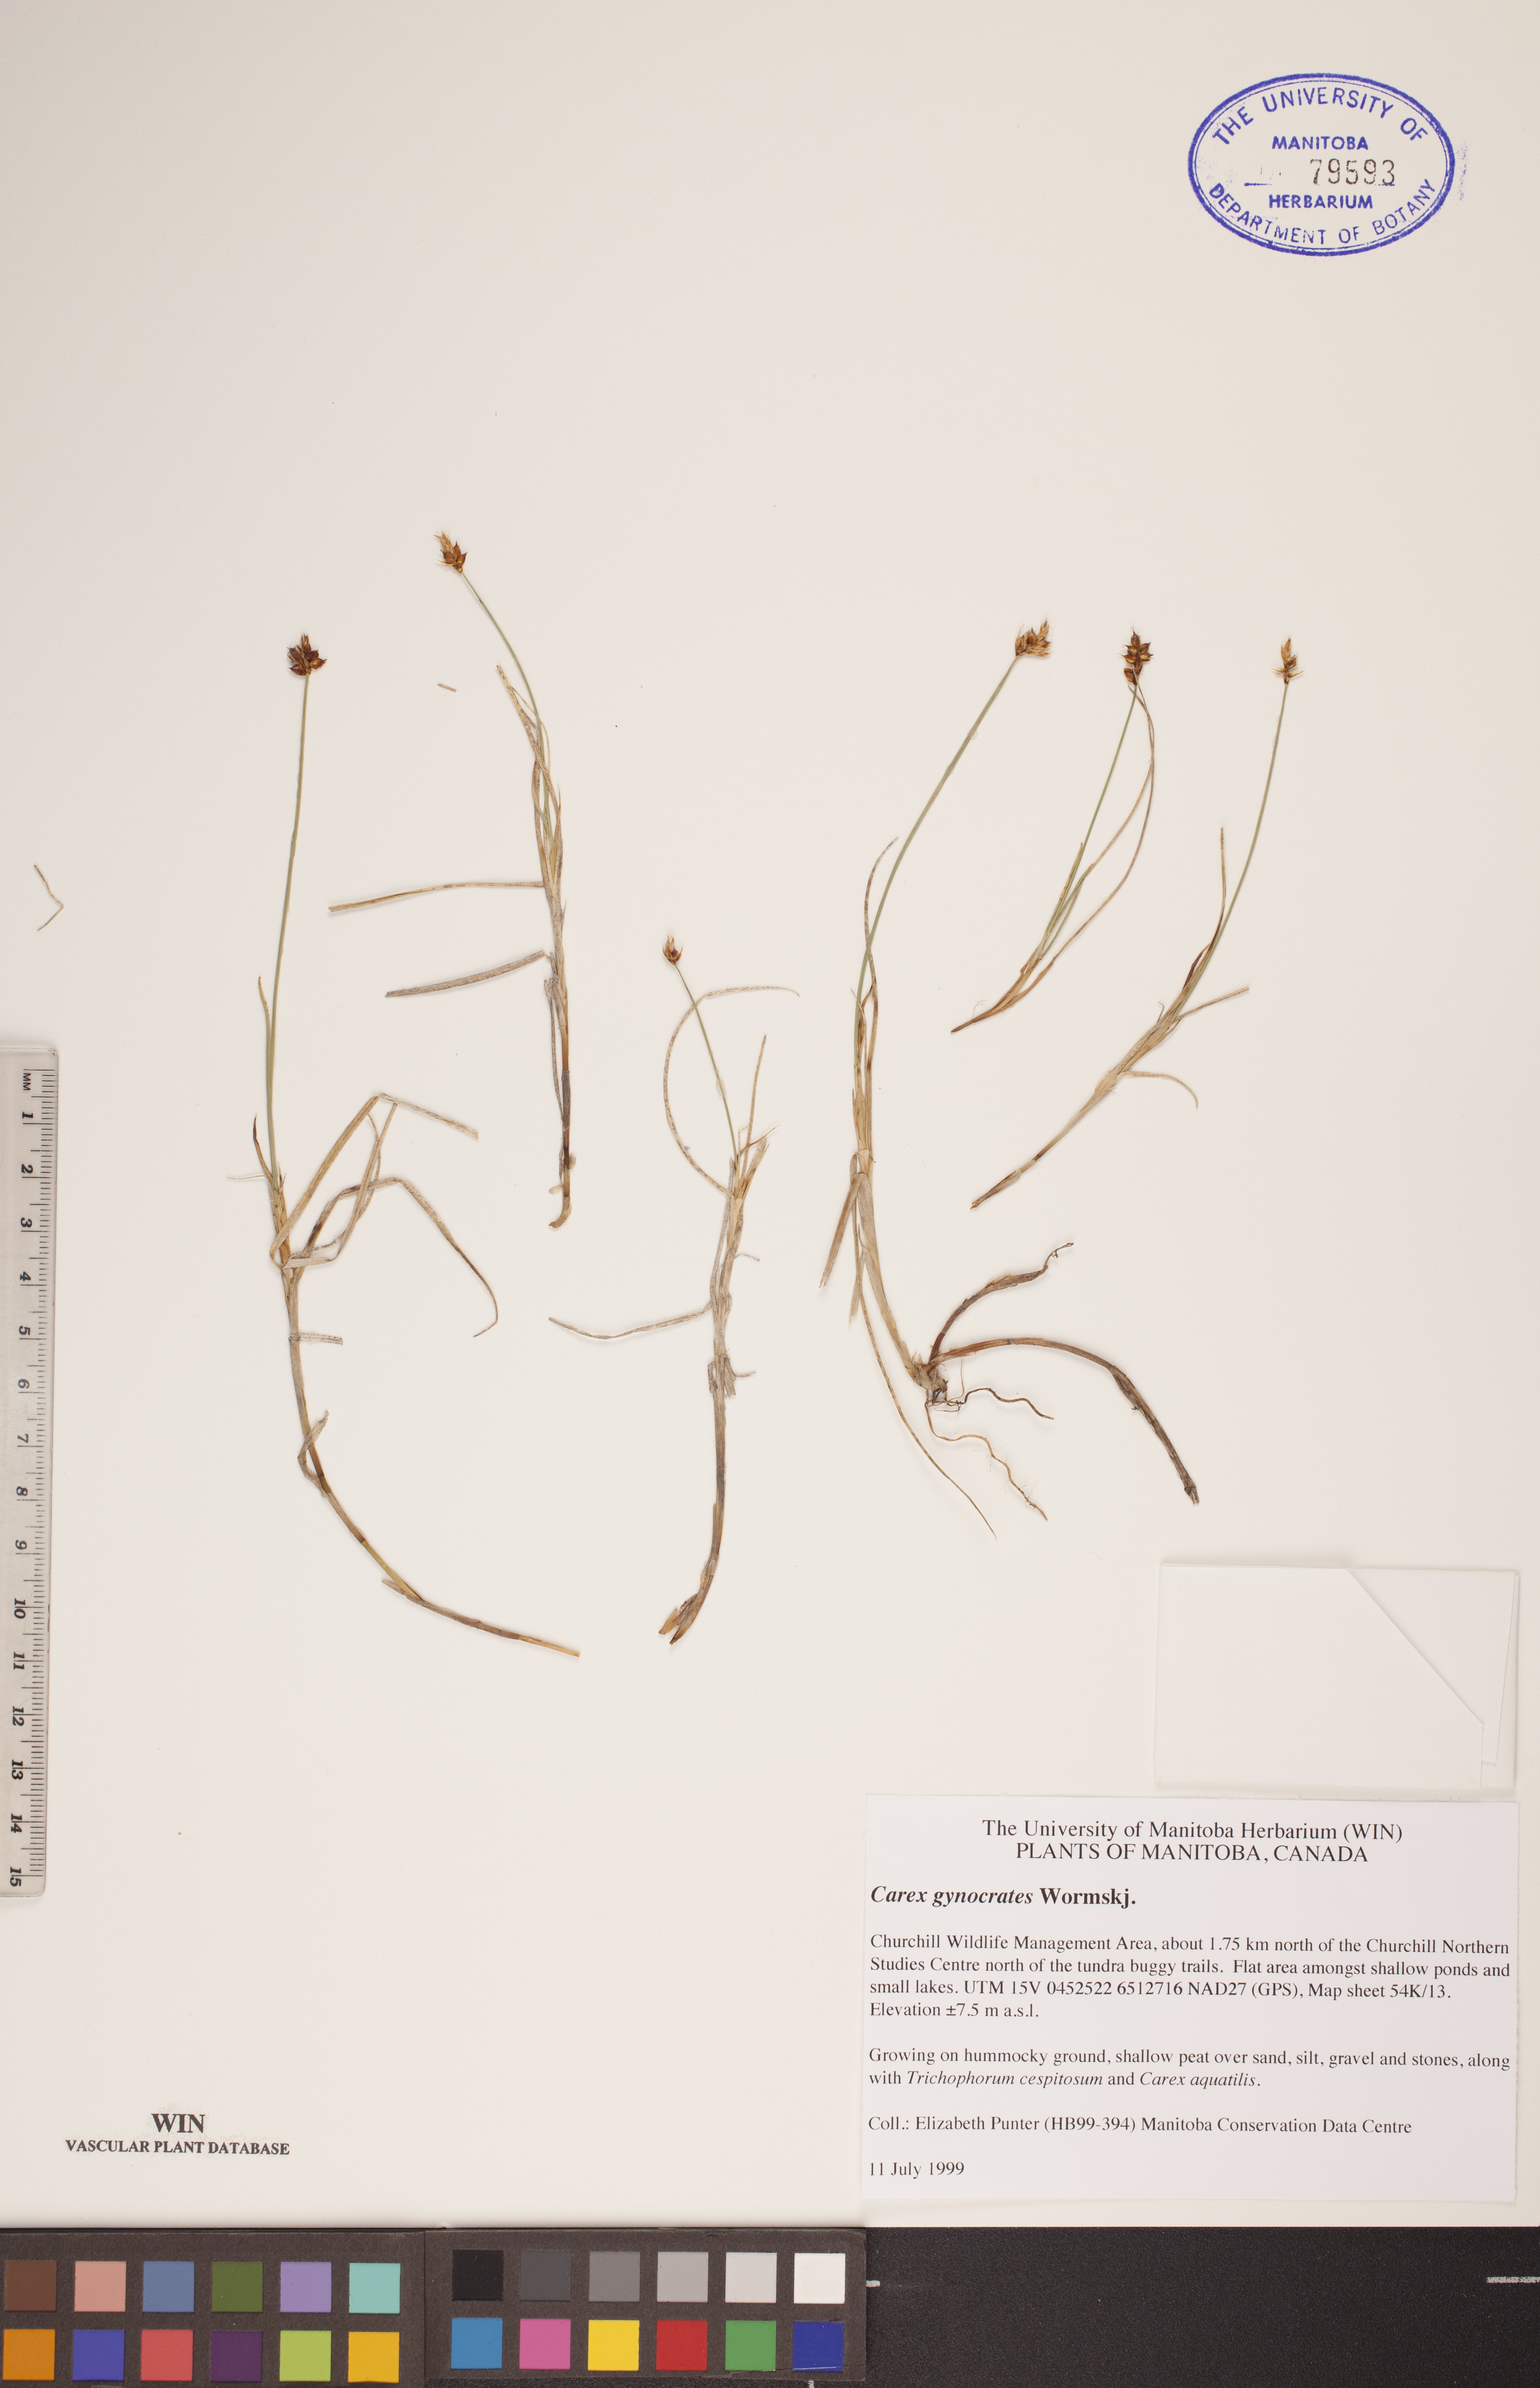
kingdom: Plantae
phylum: Tracheophyta
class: Liliopsida
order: Poales
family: Cyperaceae
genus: Carex
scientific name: Carex nardina
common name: Nard sedge
